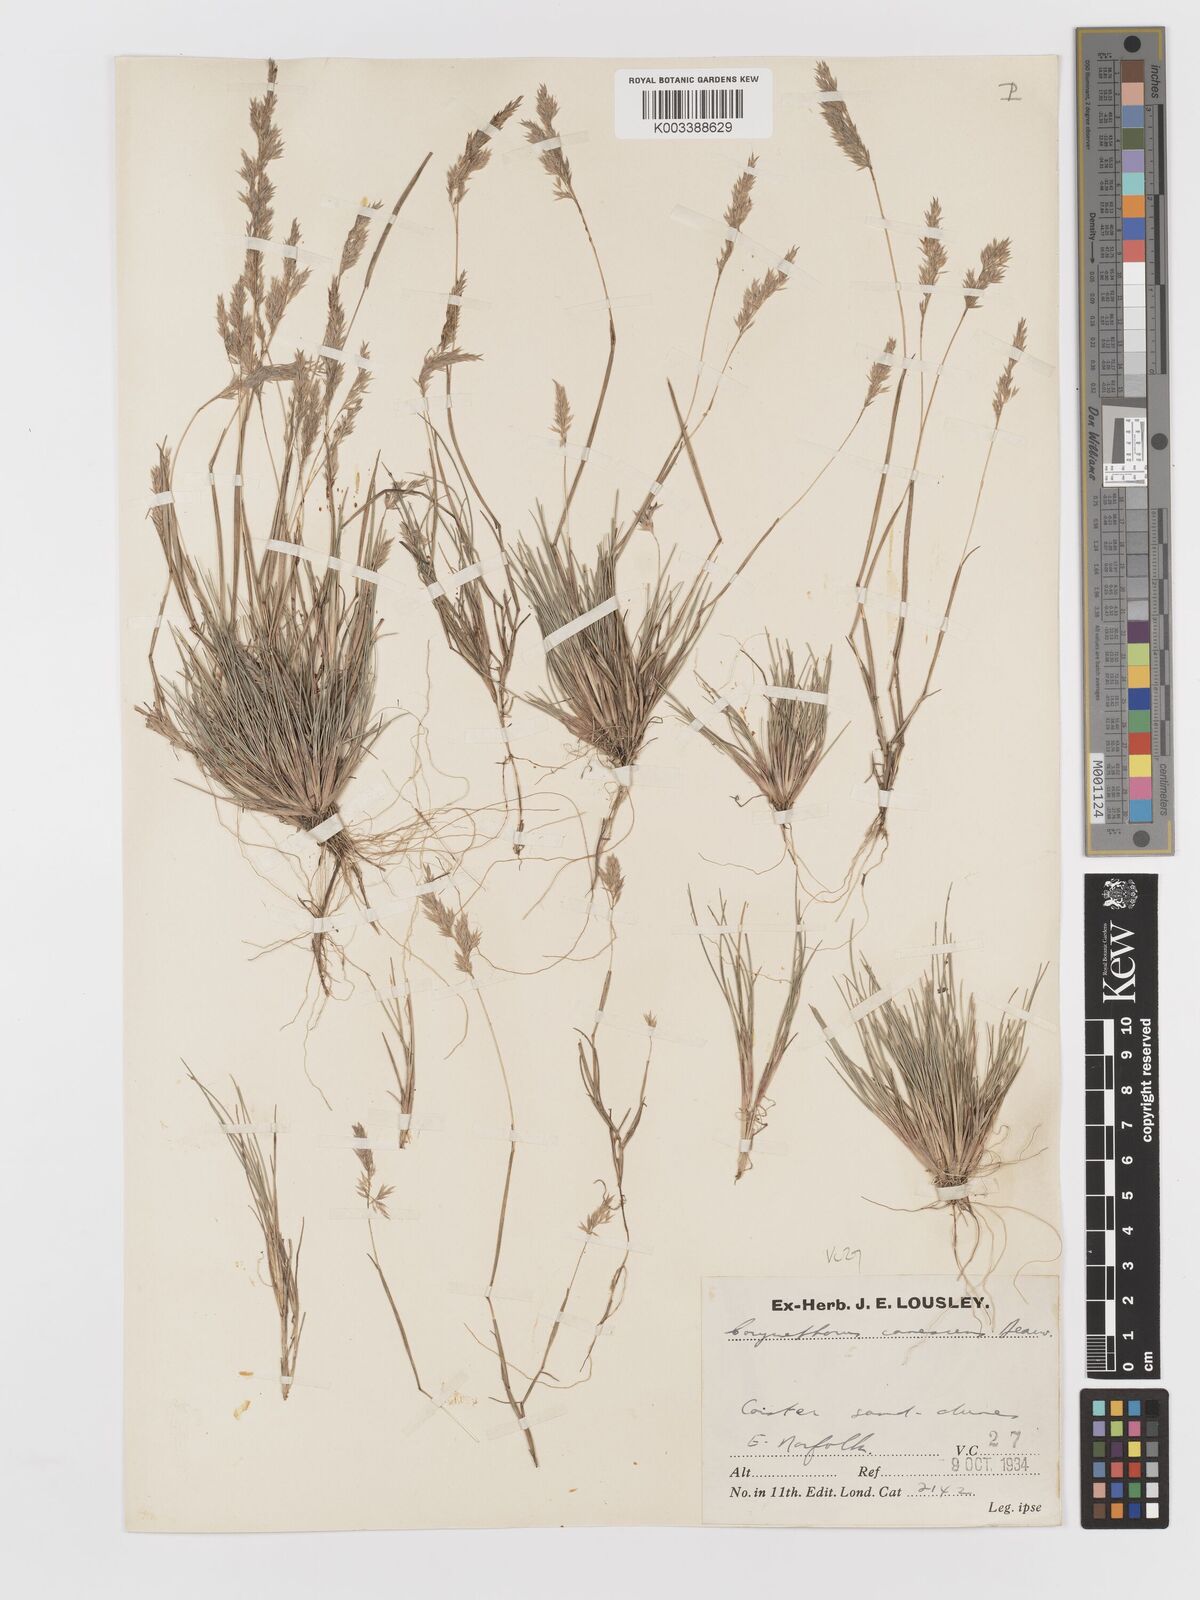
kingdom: Plantae
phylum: Tracheophyta
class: Liliopsida
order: Poales
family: Poaceae
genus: Corynephorus
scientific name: Corynephorus canescens
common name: Grey hair-grass
